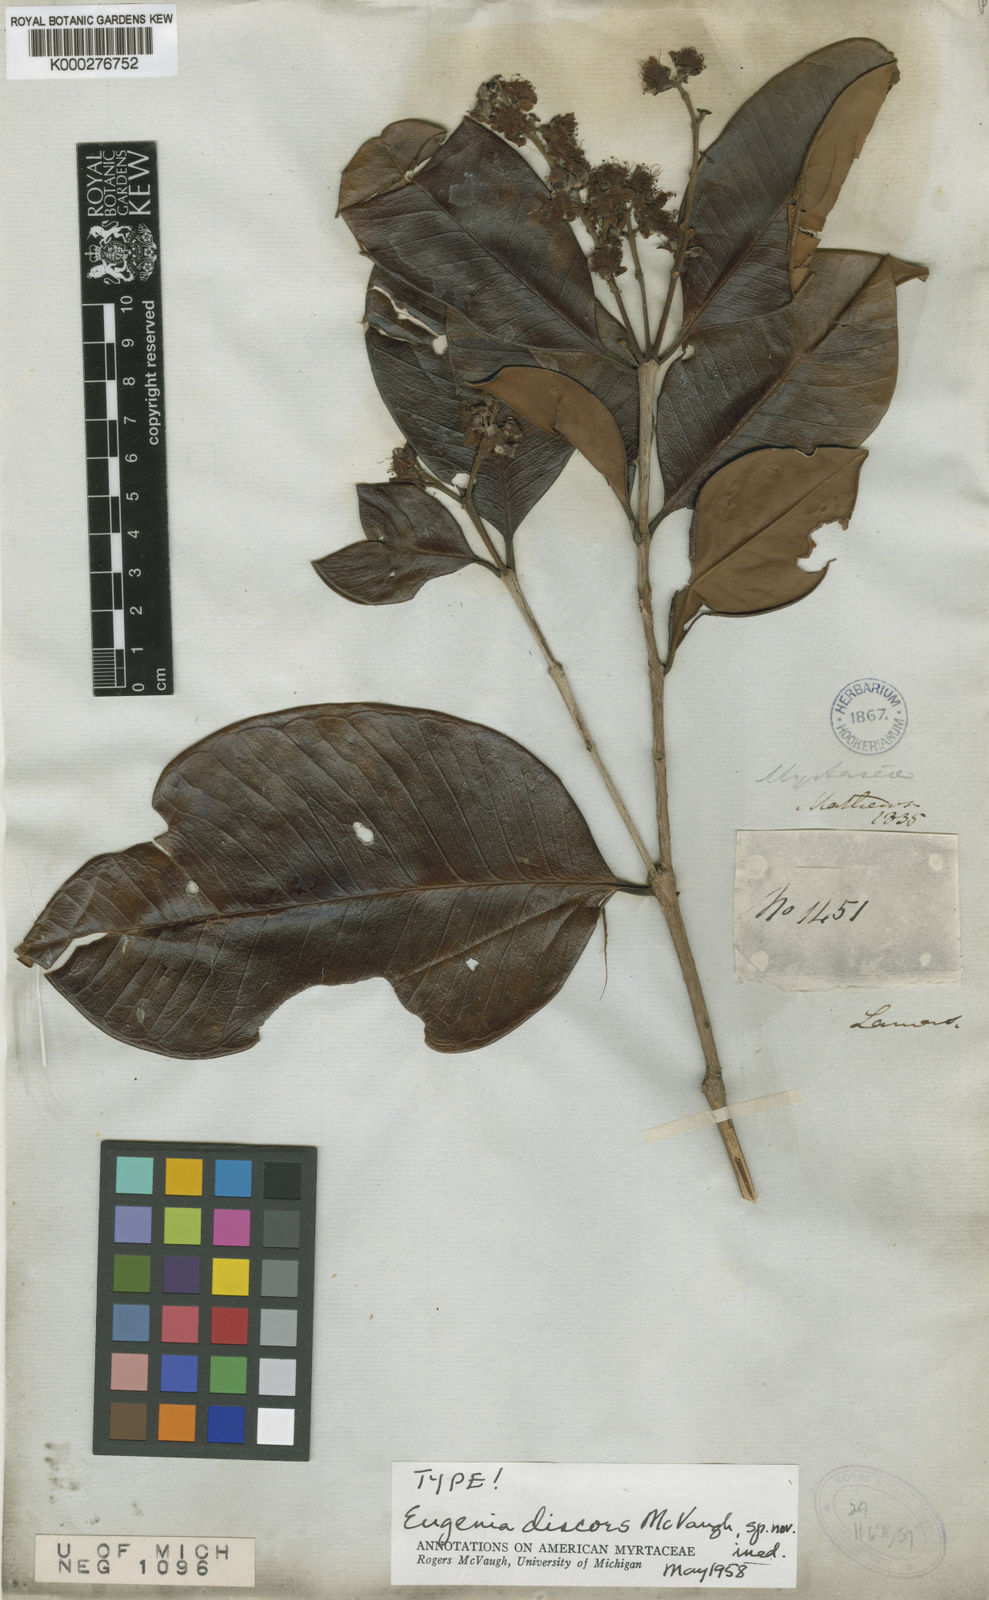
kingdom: Plantae
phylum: Tracheophyta
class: Magnoliopsida
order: Myrtales
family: Myrtaceae
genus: Eugenia
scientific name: Eugenia discors
